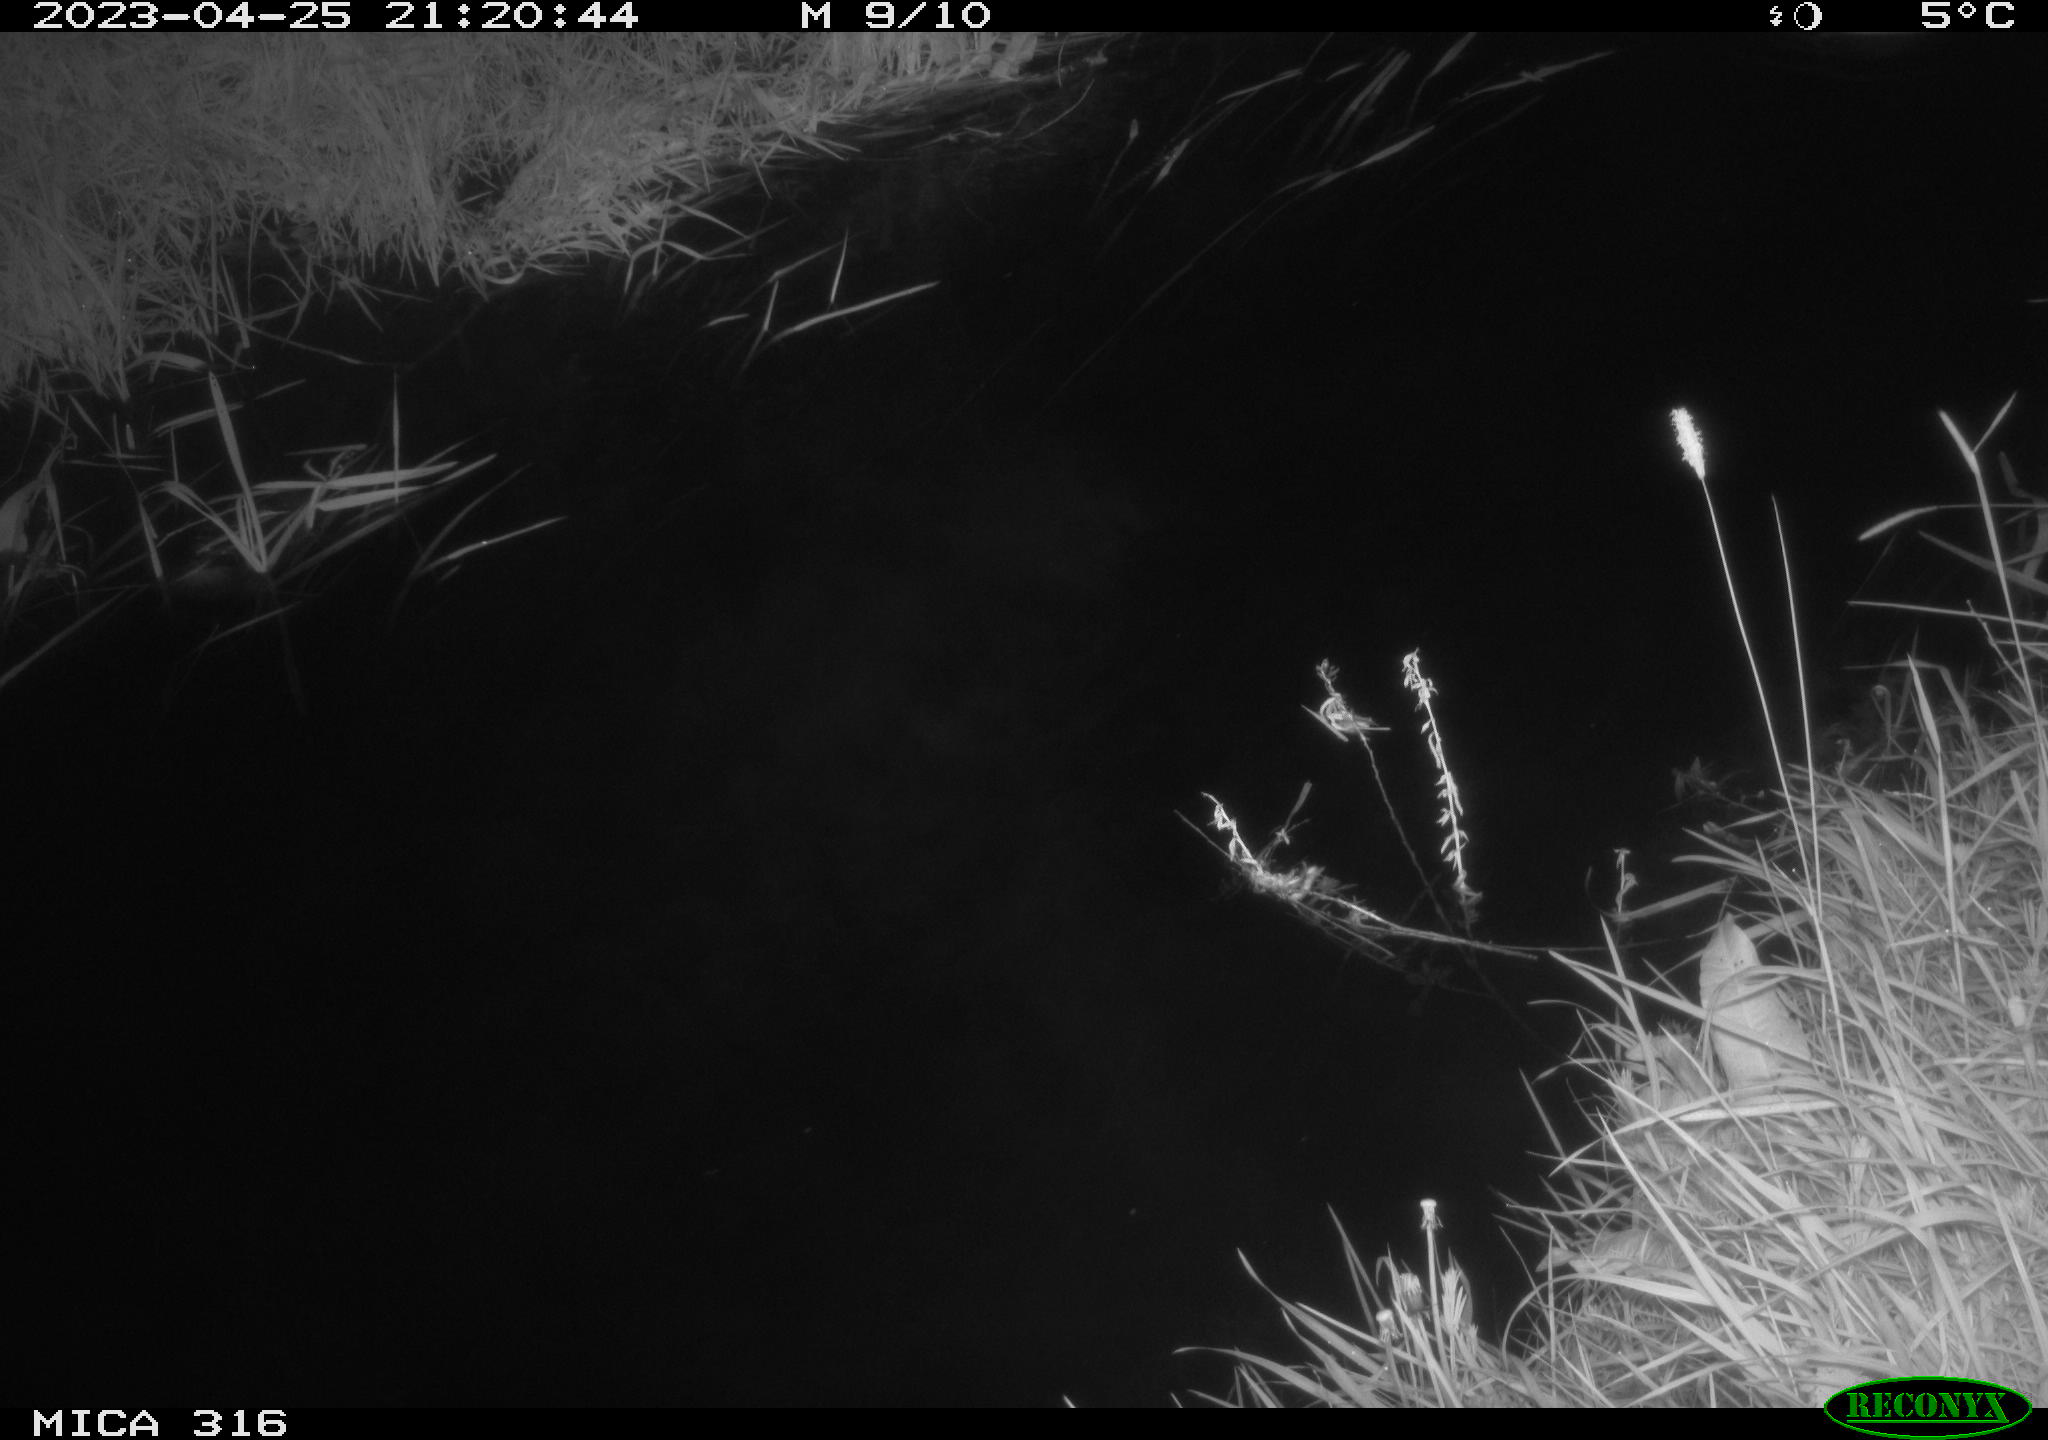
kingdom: Animalia
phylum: Chordata
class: Aves
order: Anseriformes
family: Anatidae
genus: Anas
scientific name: Anas
